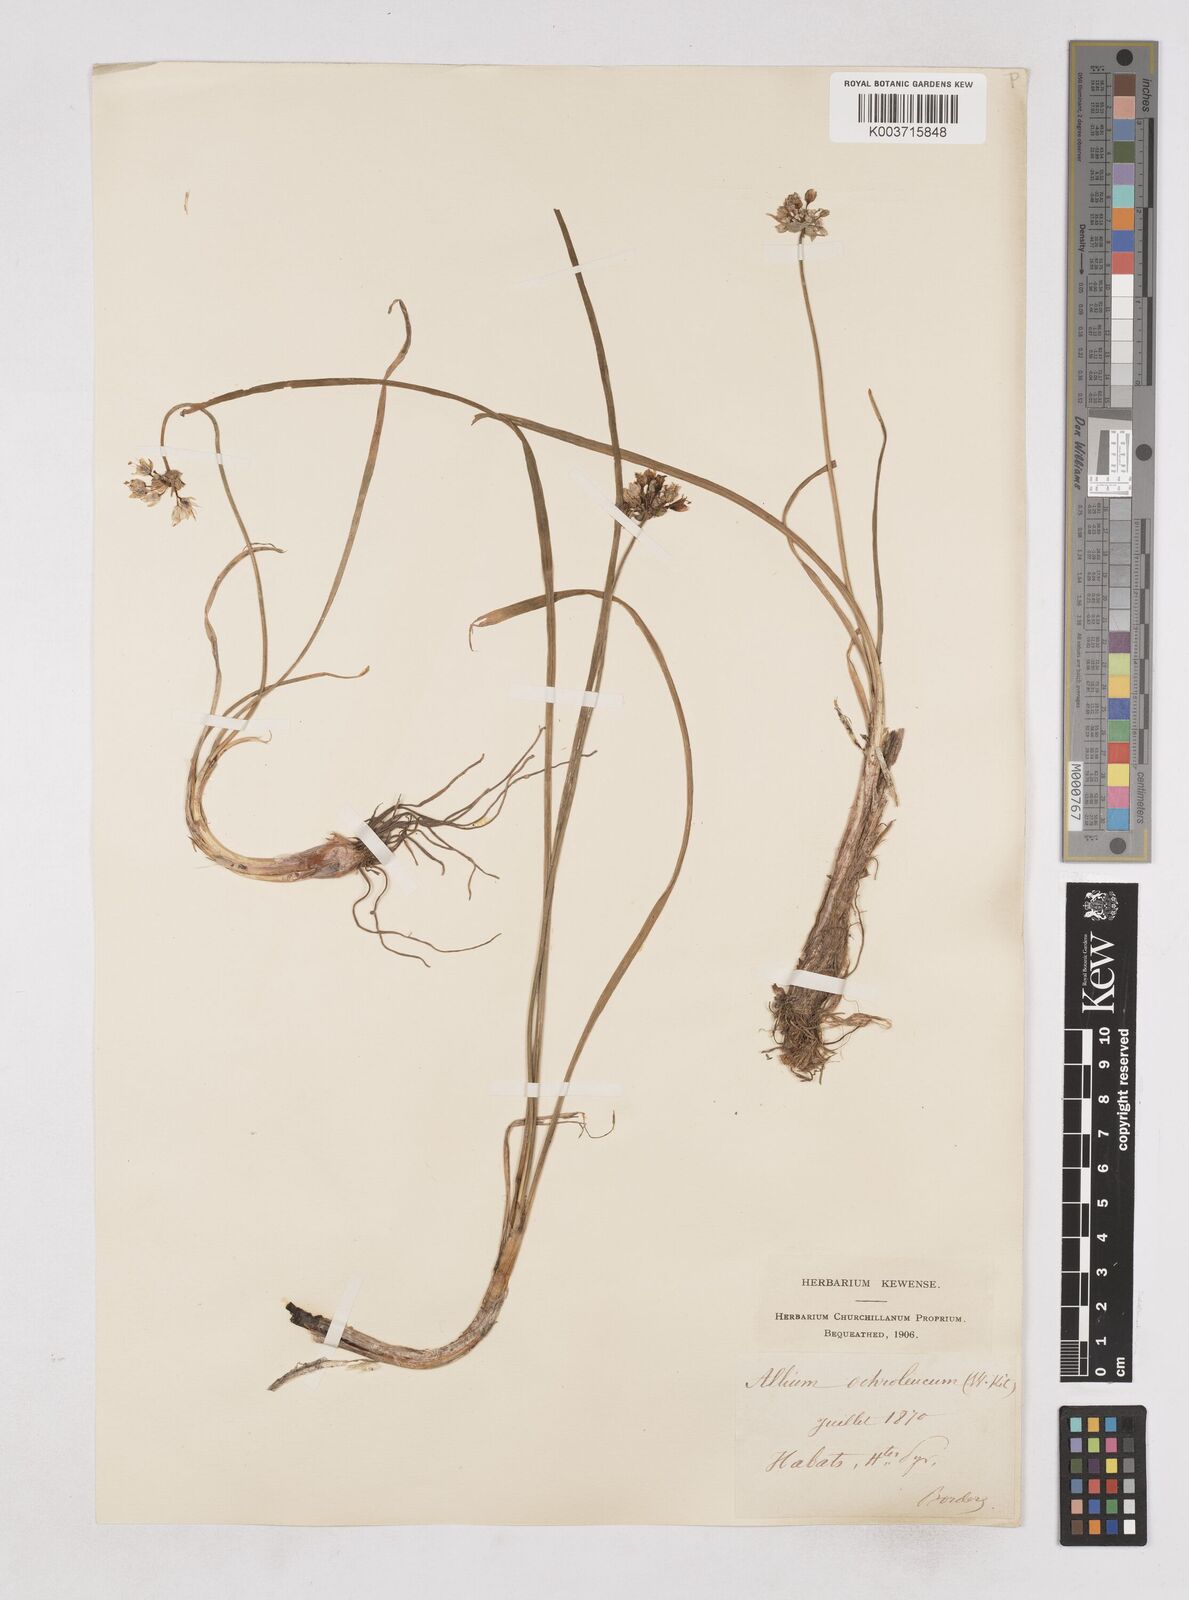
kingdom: Plantae
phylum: Tracheophyta
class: Liliopsida
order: Asparagales
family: Amaryllidaceae
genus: Allium
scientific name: Allium ericetorum
